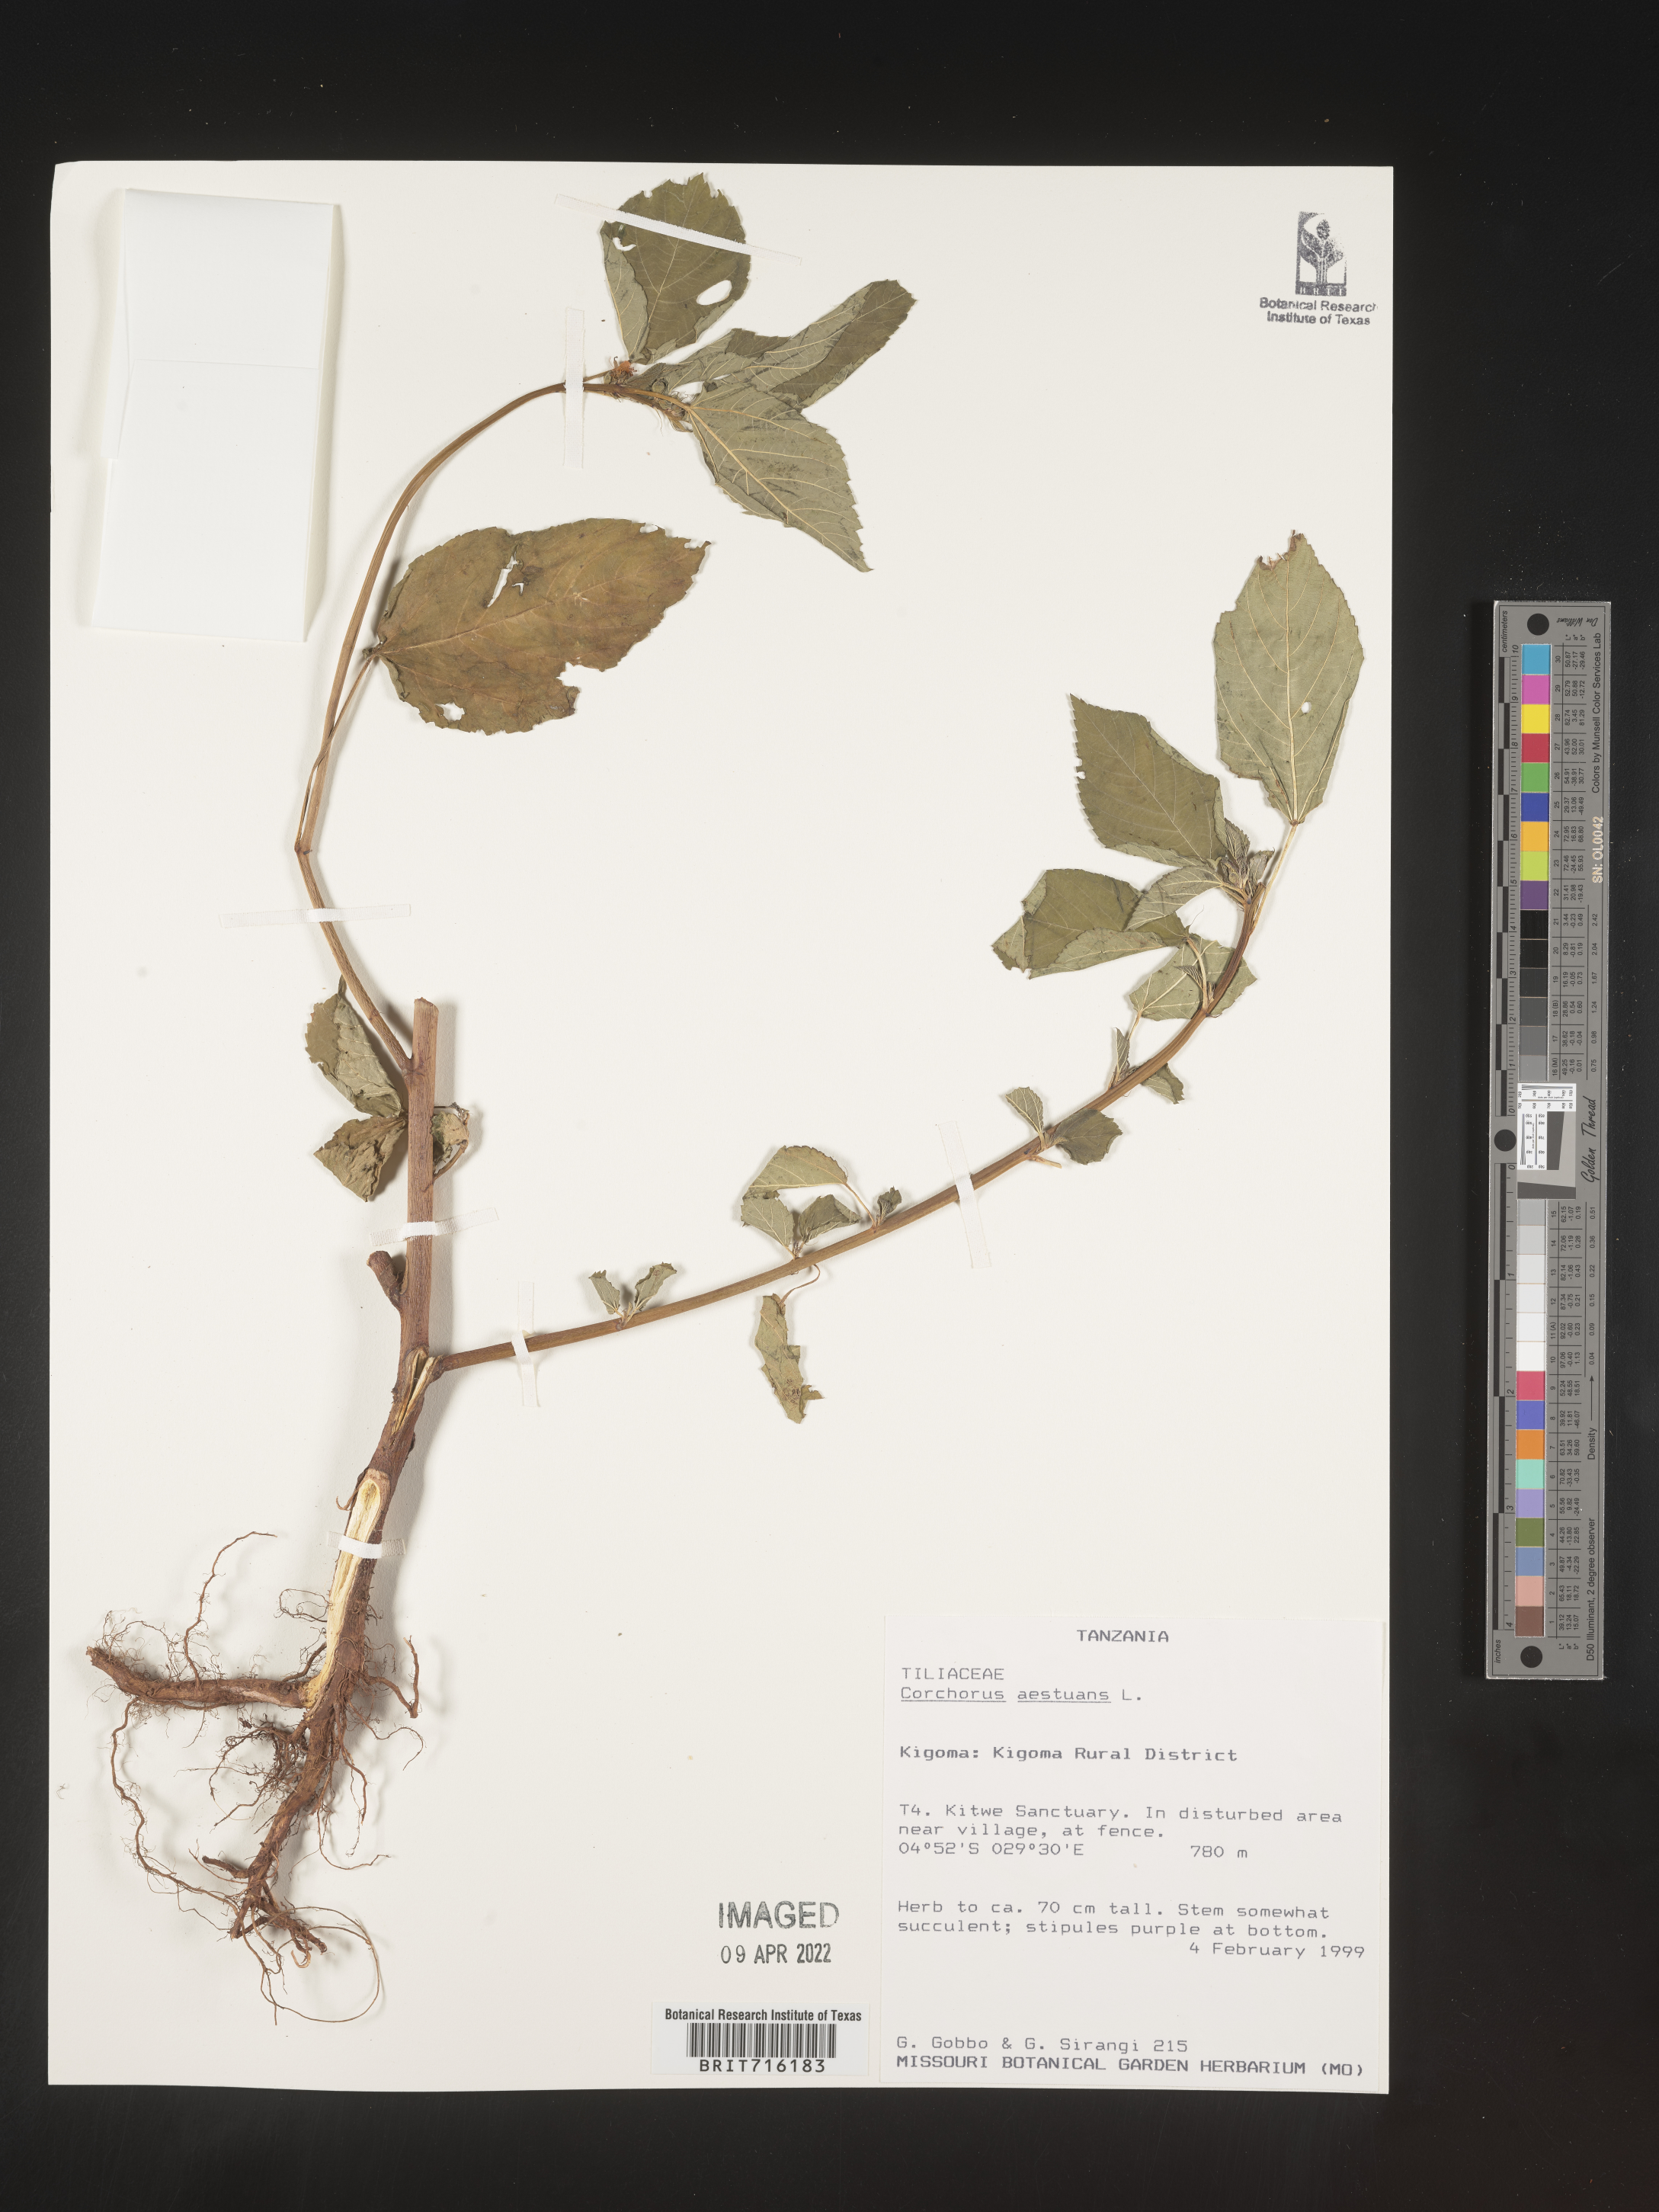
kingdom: Plantae
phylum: Tracheophyta
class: Magnoliopsida
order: Malvales
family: Malvaceae
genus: Corchorus
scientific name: Corchorus
